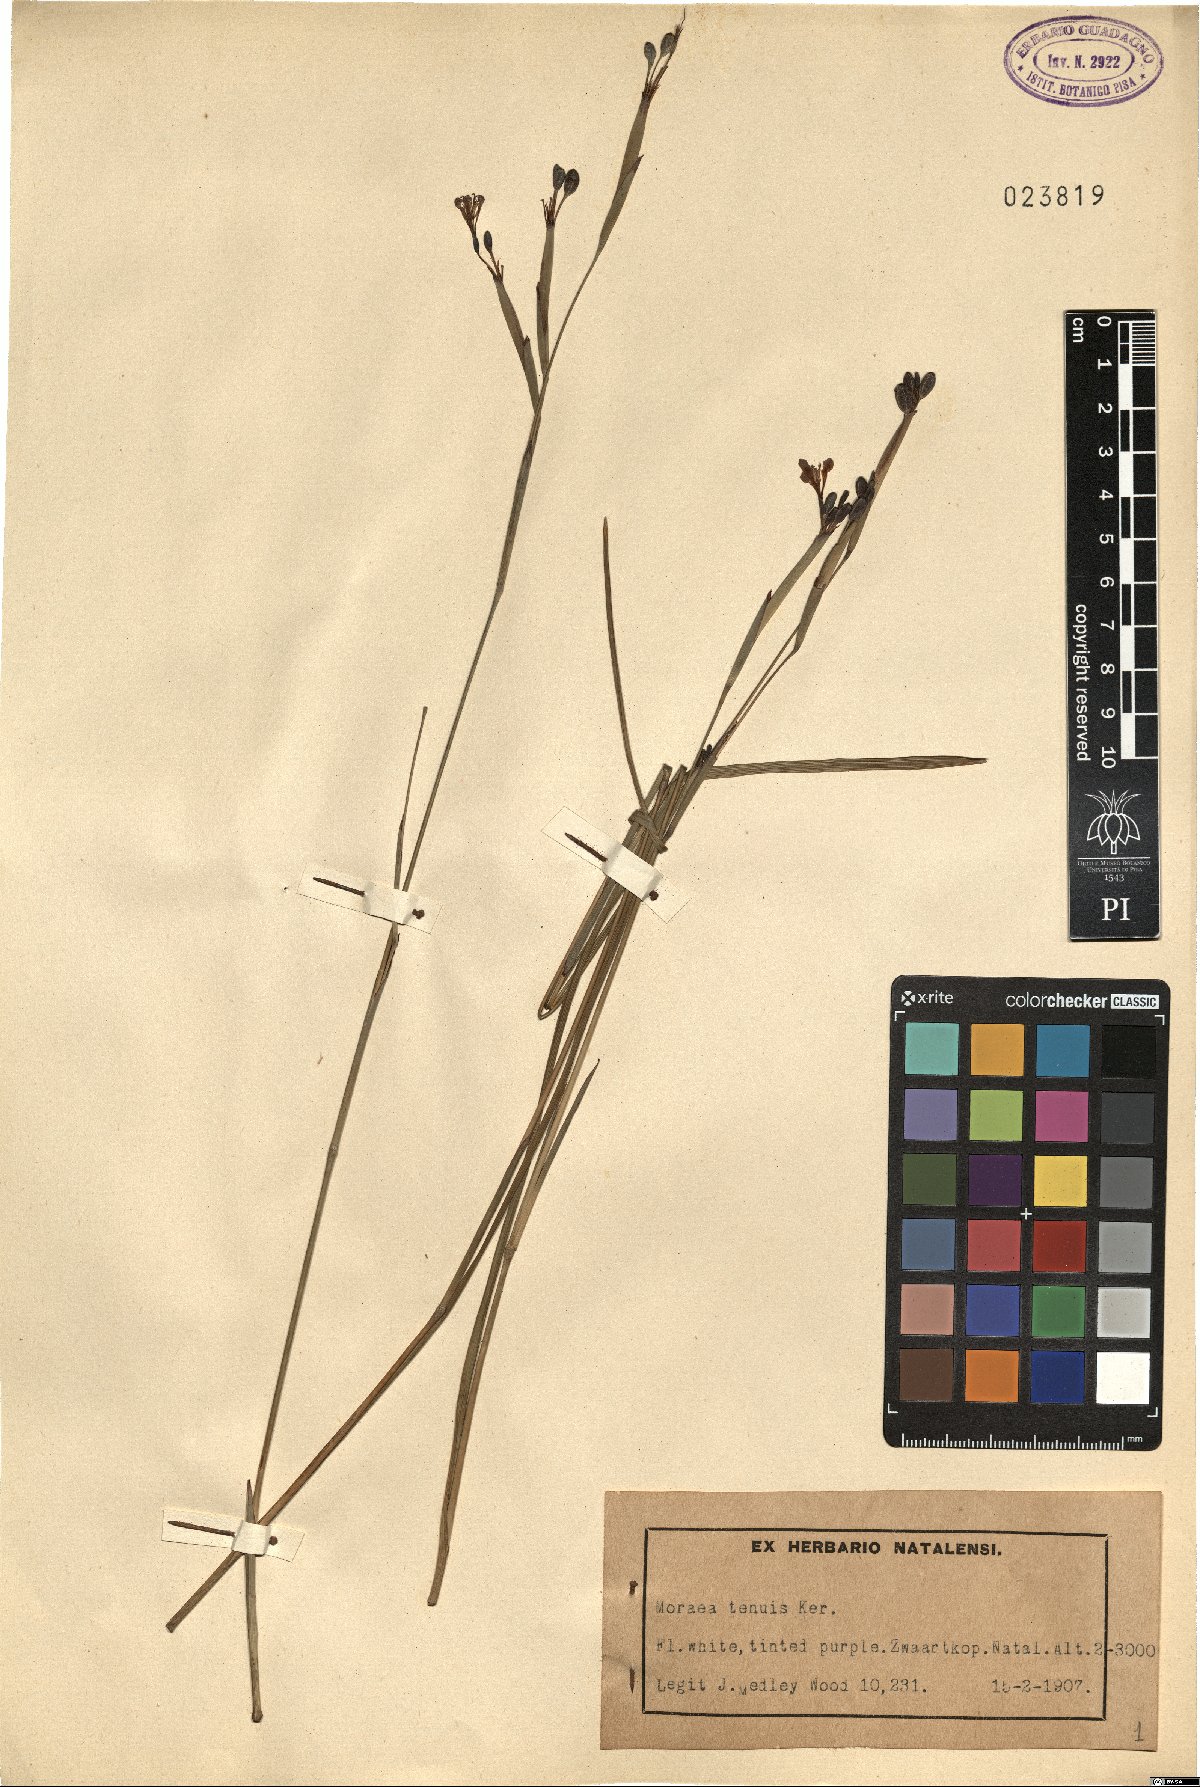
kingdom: Plantae
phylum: Tracheophyta
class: Liliopsida
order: Asparagales
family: Iridaceae
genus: Moraea
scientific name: Moraea unguiculata
